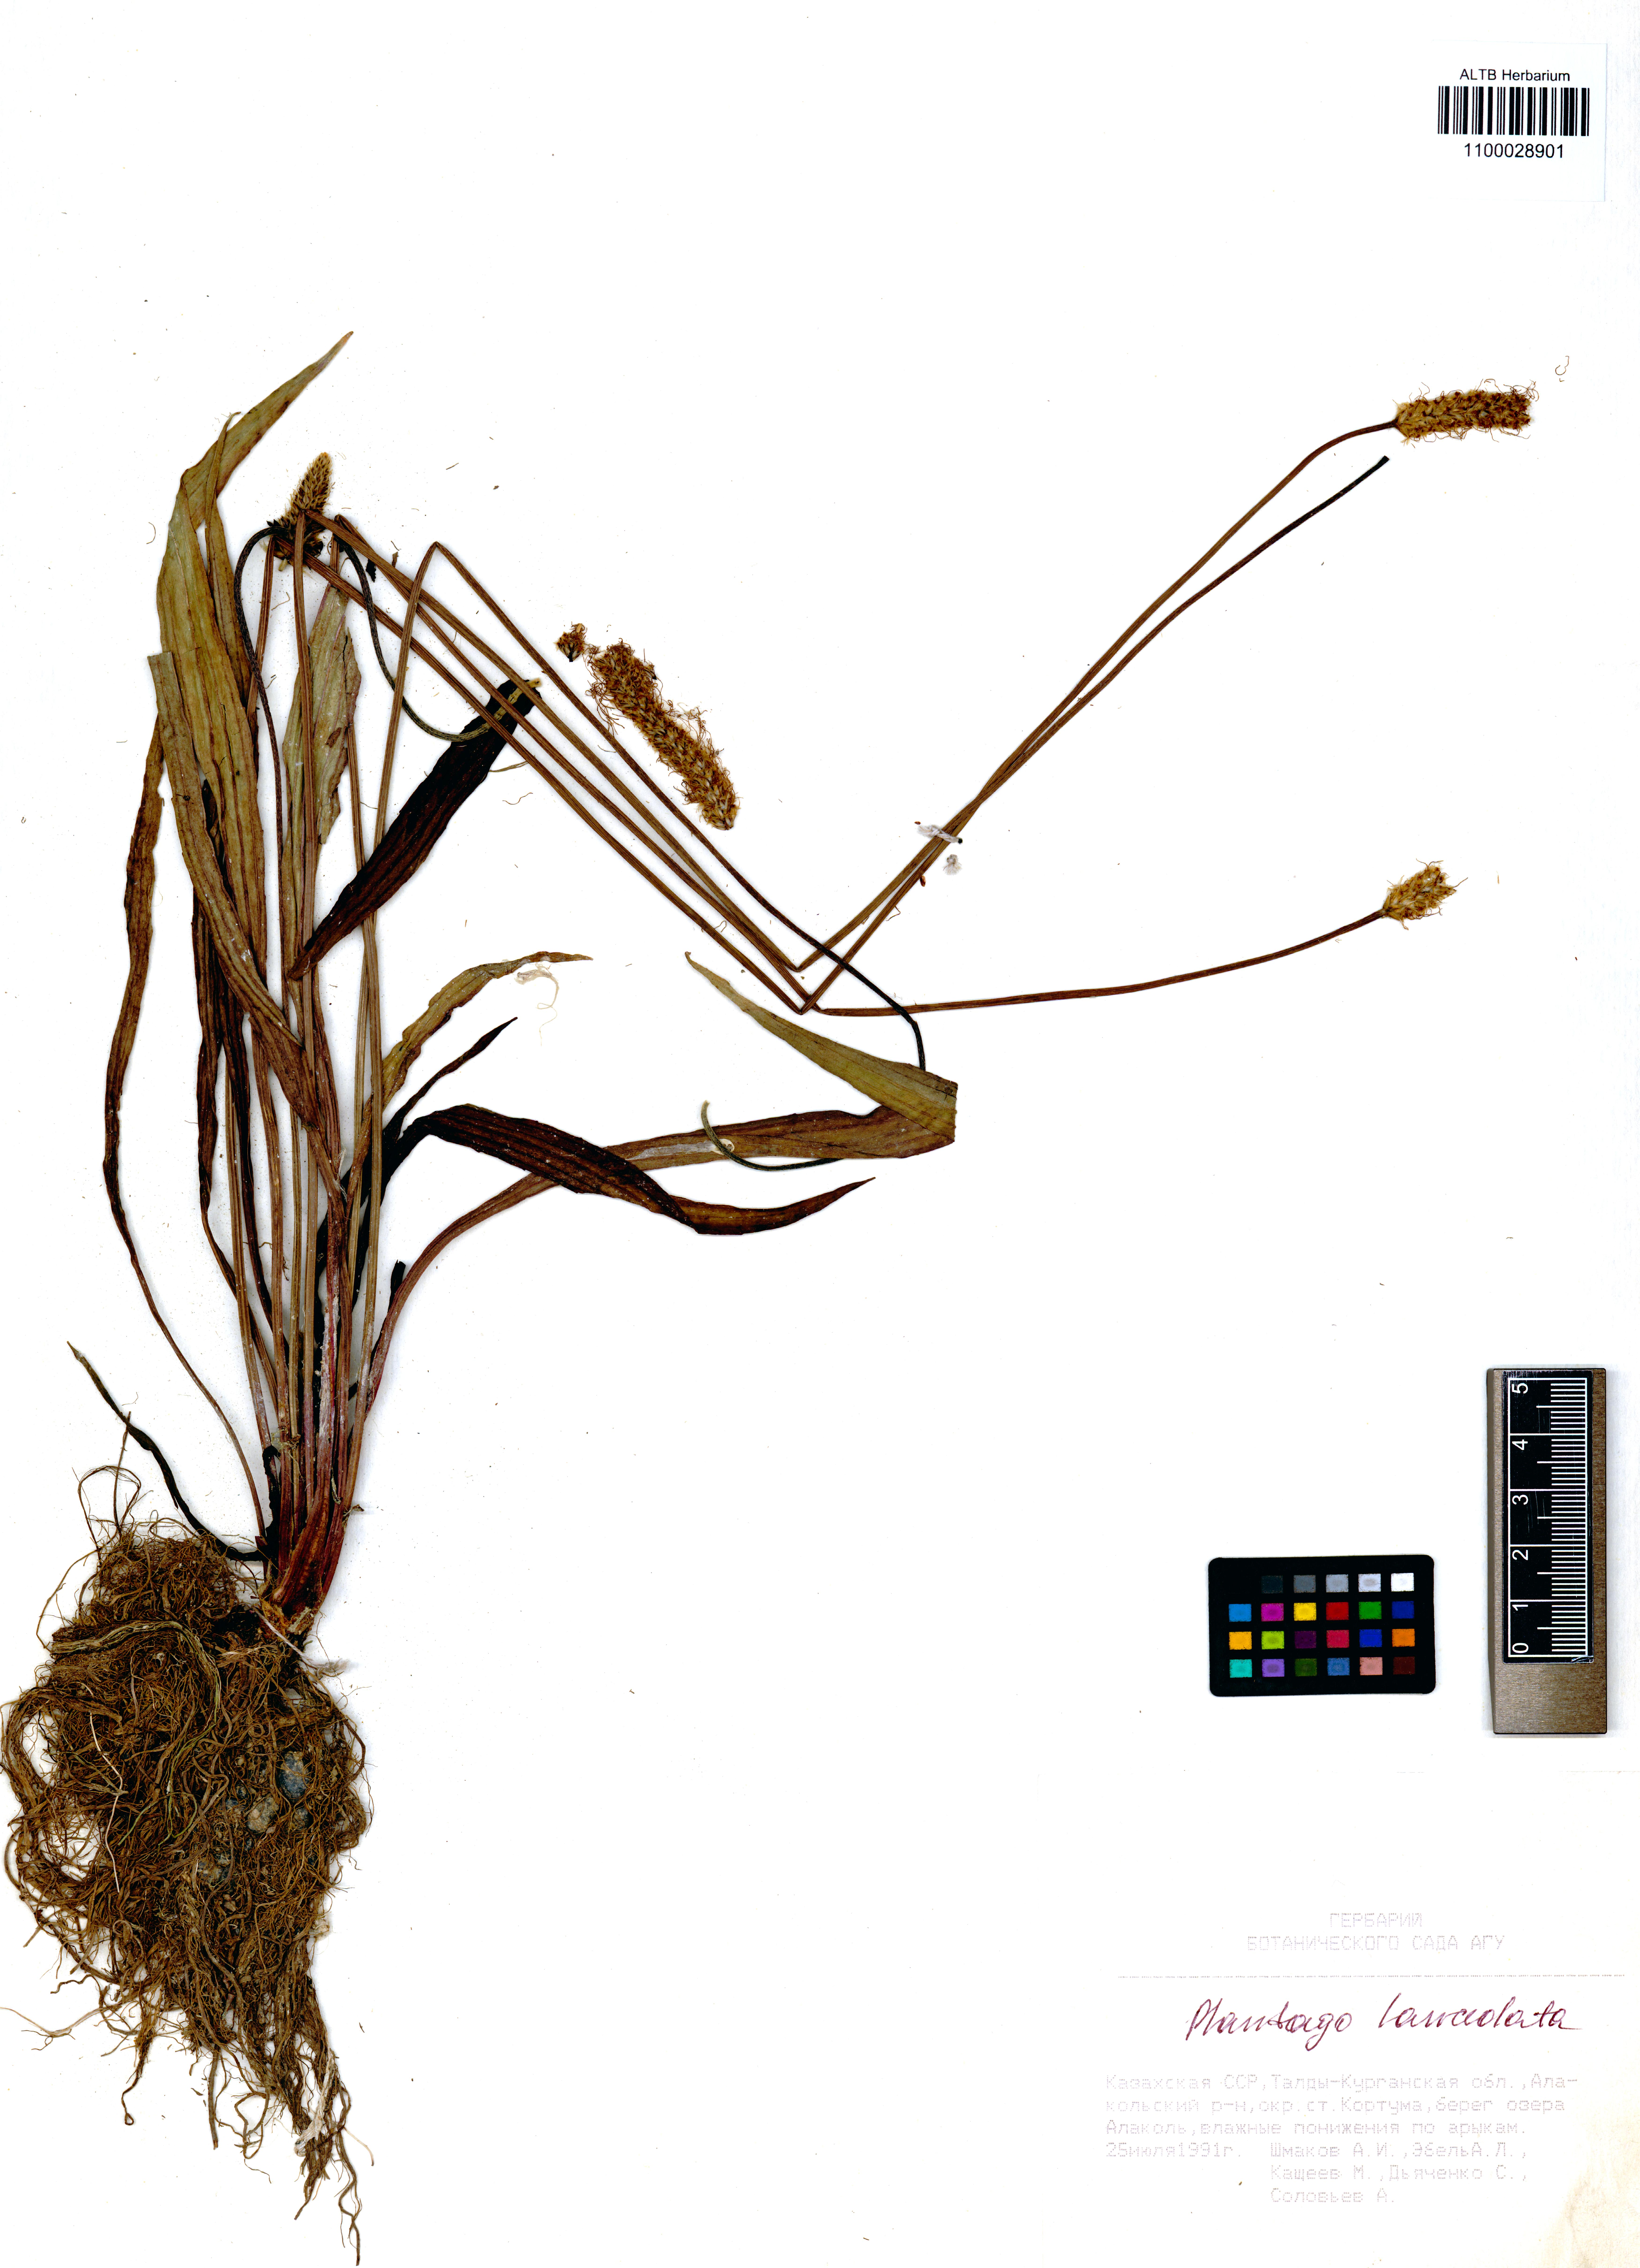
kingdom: Plantae
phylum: Tracheophyta
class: Magnoliopsida
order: Lamiales
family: Plantaginaceae
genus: Plantago
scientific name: Plantago lanceolata
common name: Ribwort plantain
